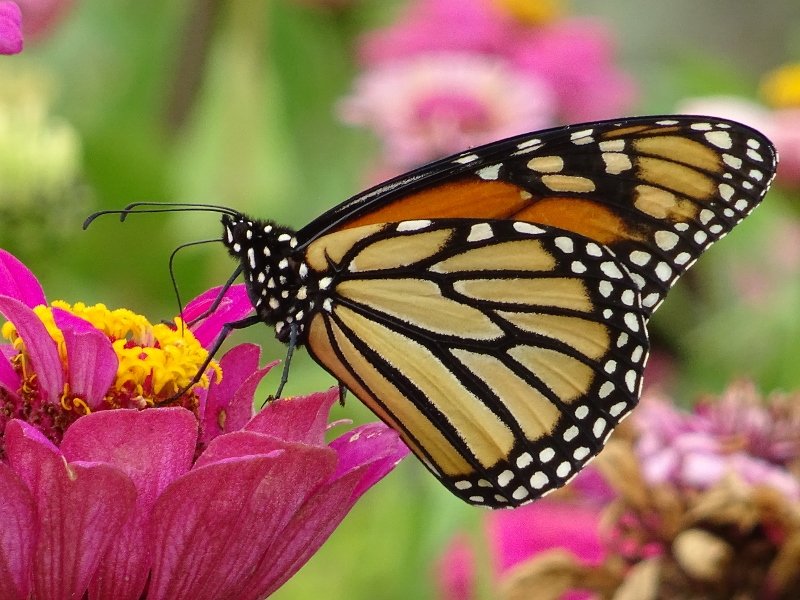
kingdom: Animalia
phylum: Arthropoda
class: Insecta
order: Lepidoptera
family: Nymphalidae
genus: Danaus
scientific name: Danaus plexippus
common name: Monarch
